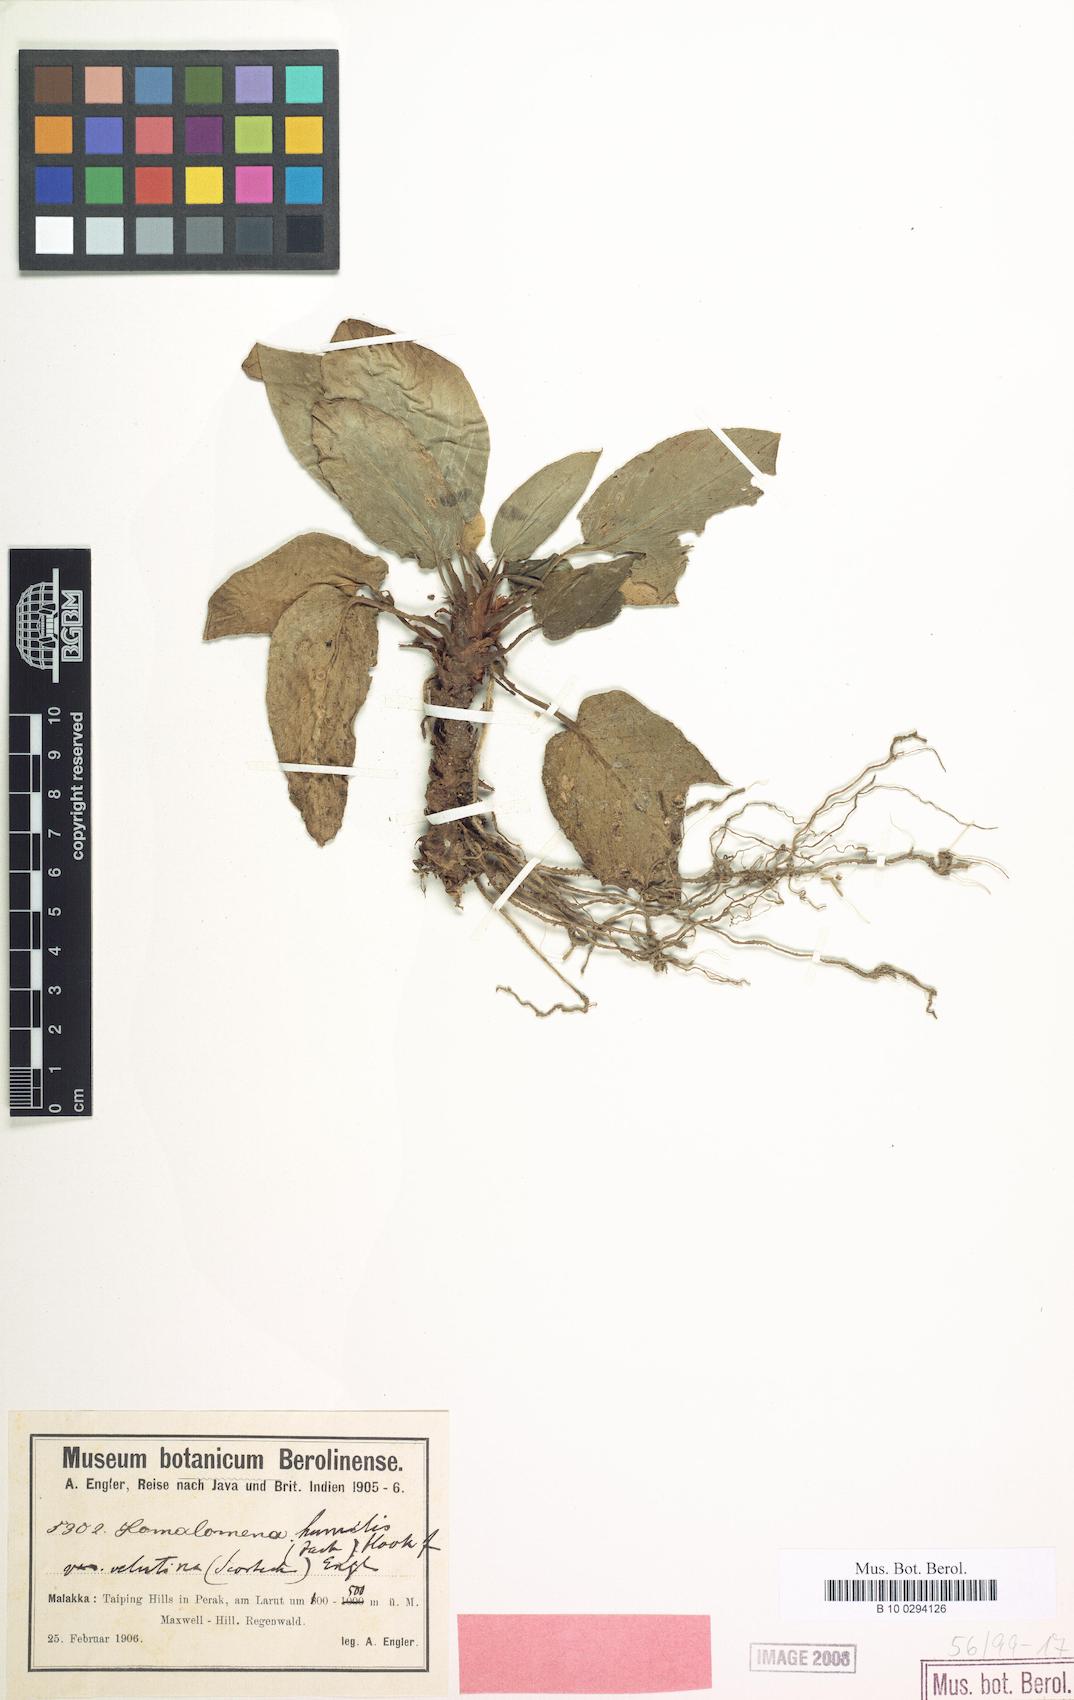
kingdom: Plantae
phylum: Tracheophyta
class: Liliopsida
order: Alismatales
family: Araceae
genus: Homalomena
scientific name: Homalomena humilis
